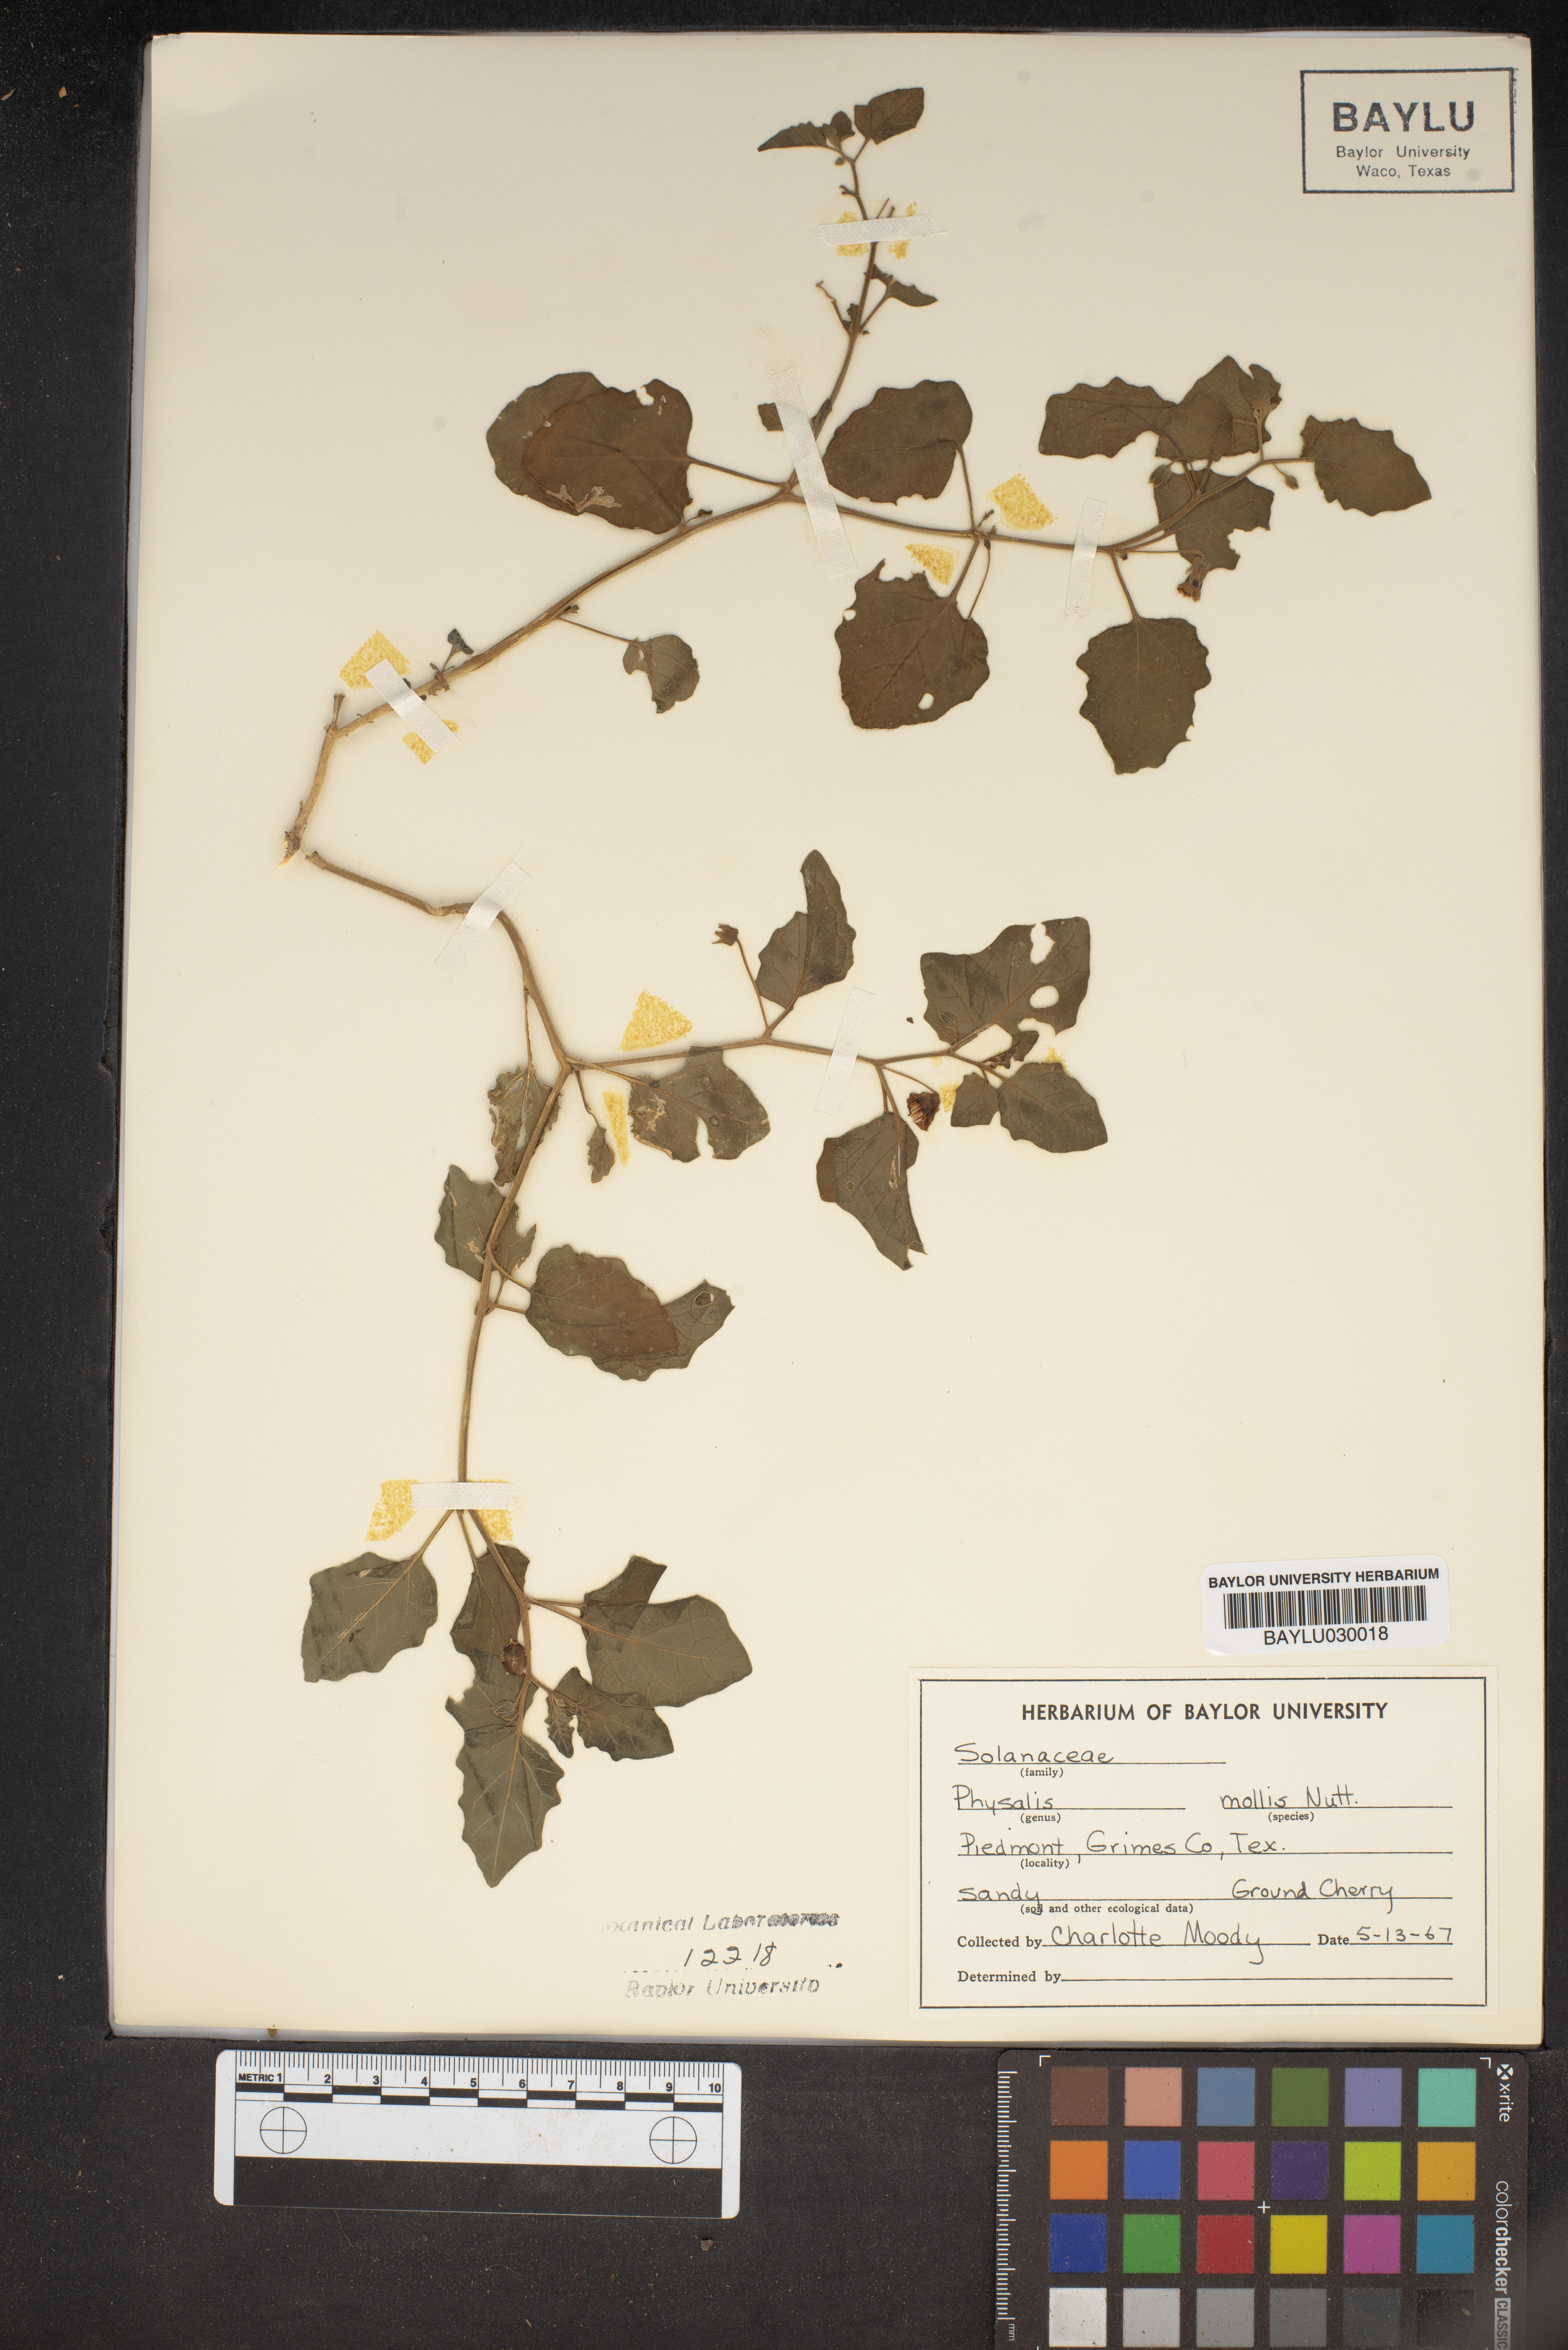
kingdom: Plantae
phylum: Tracheophyta
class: Magnoliopsida
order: Solanales
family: Solanaceae
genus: Physalis
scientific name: Physalis mollis
